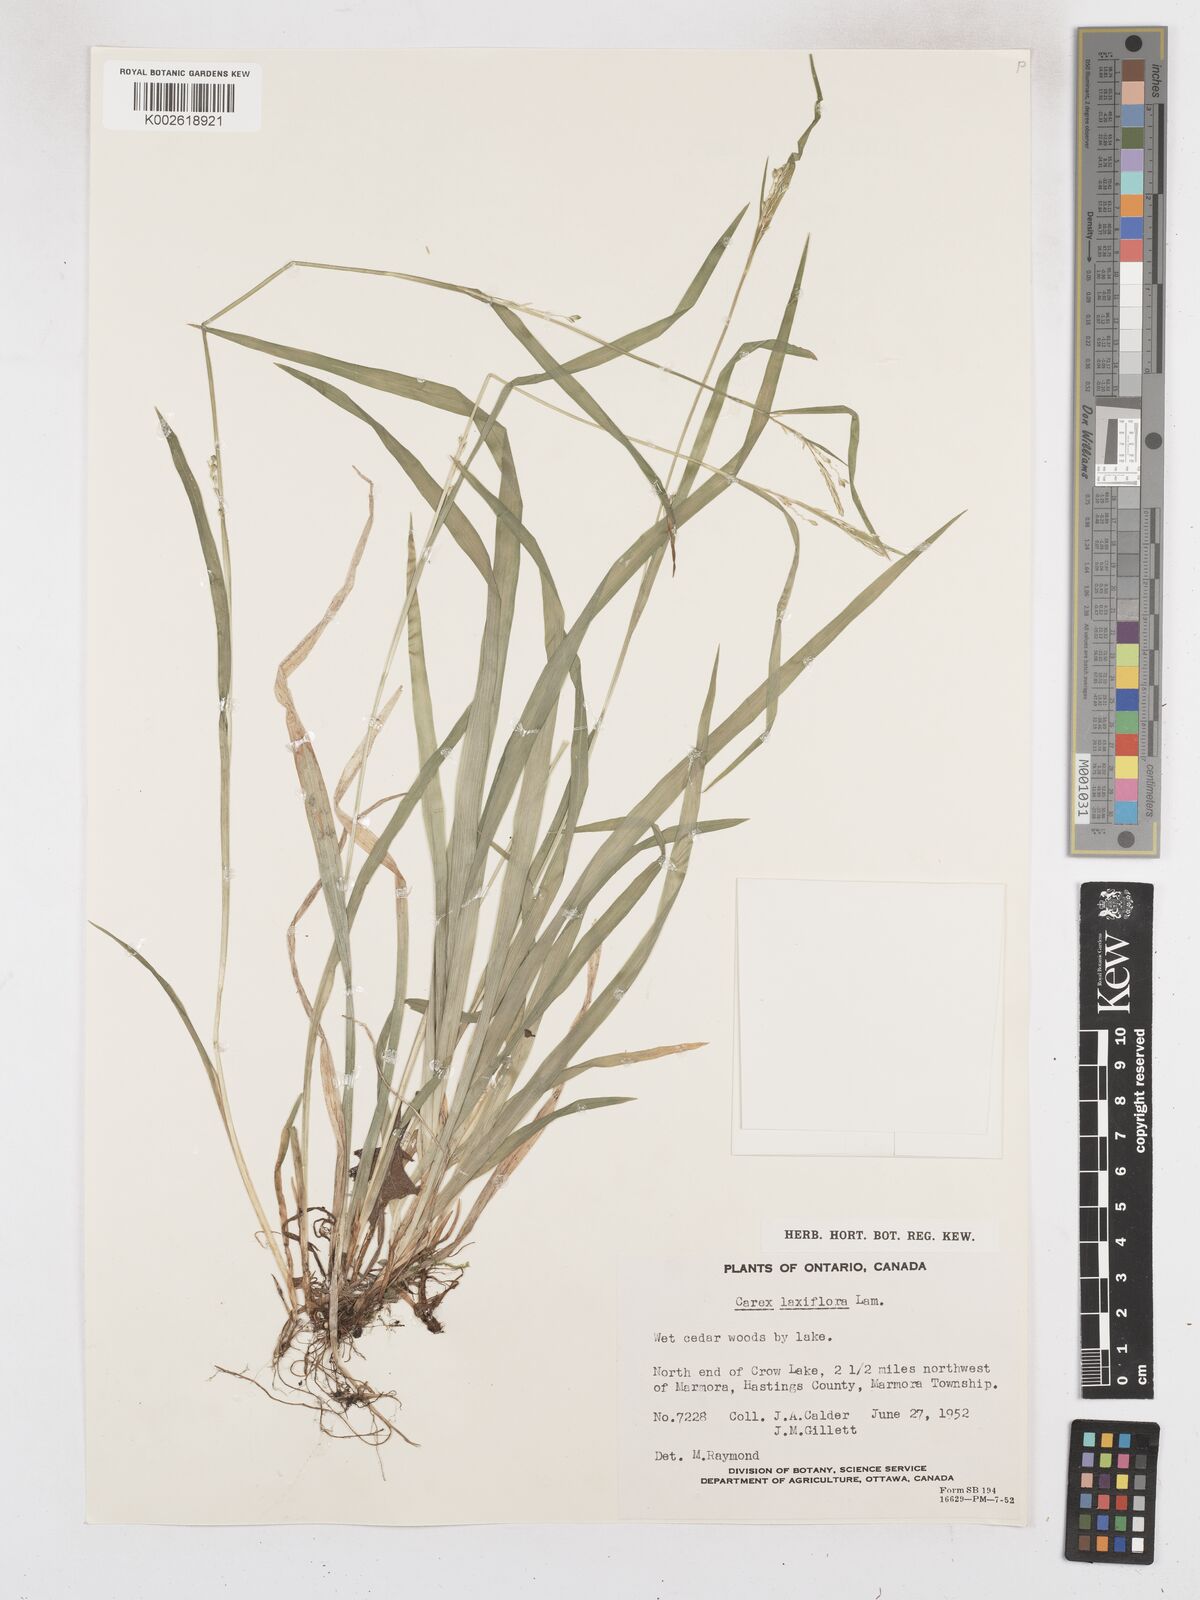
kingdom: Plantae
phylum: Tracheophyta
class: Liliopsida
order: Poales
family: Cyperaceae
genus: Carex
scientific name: Carex laxiflora
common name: Beech wood sedge
